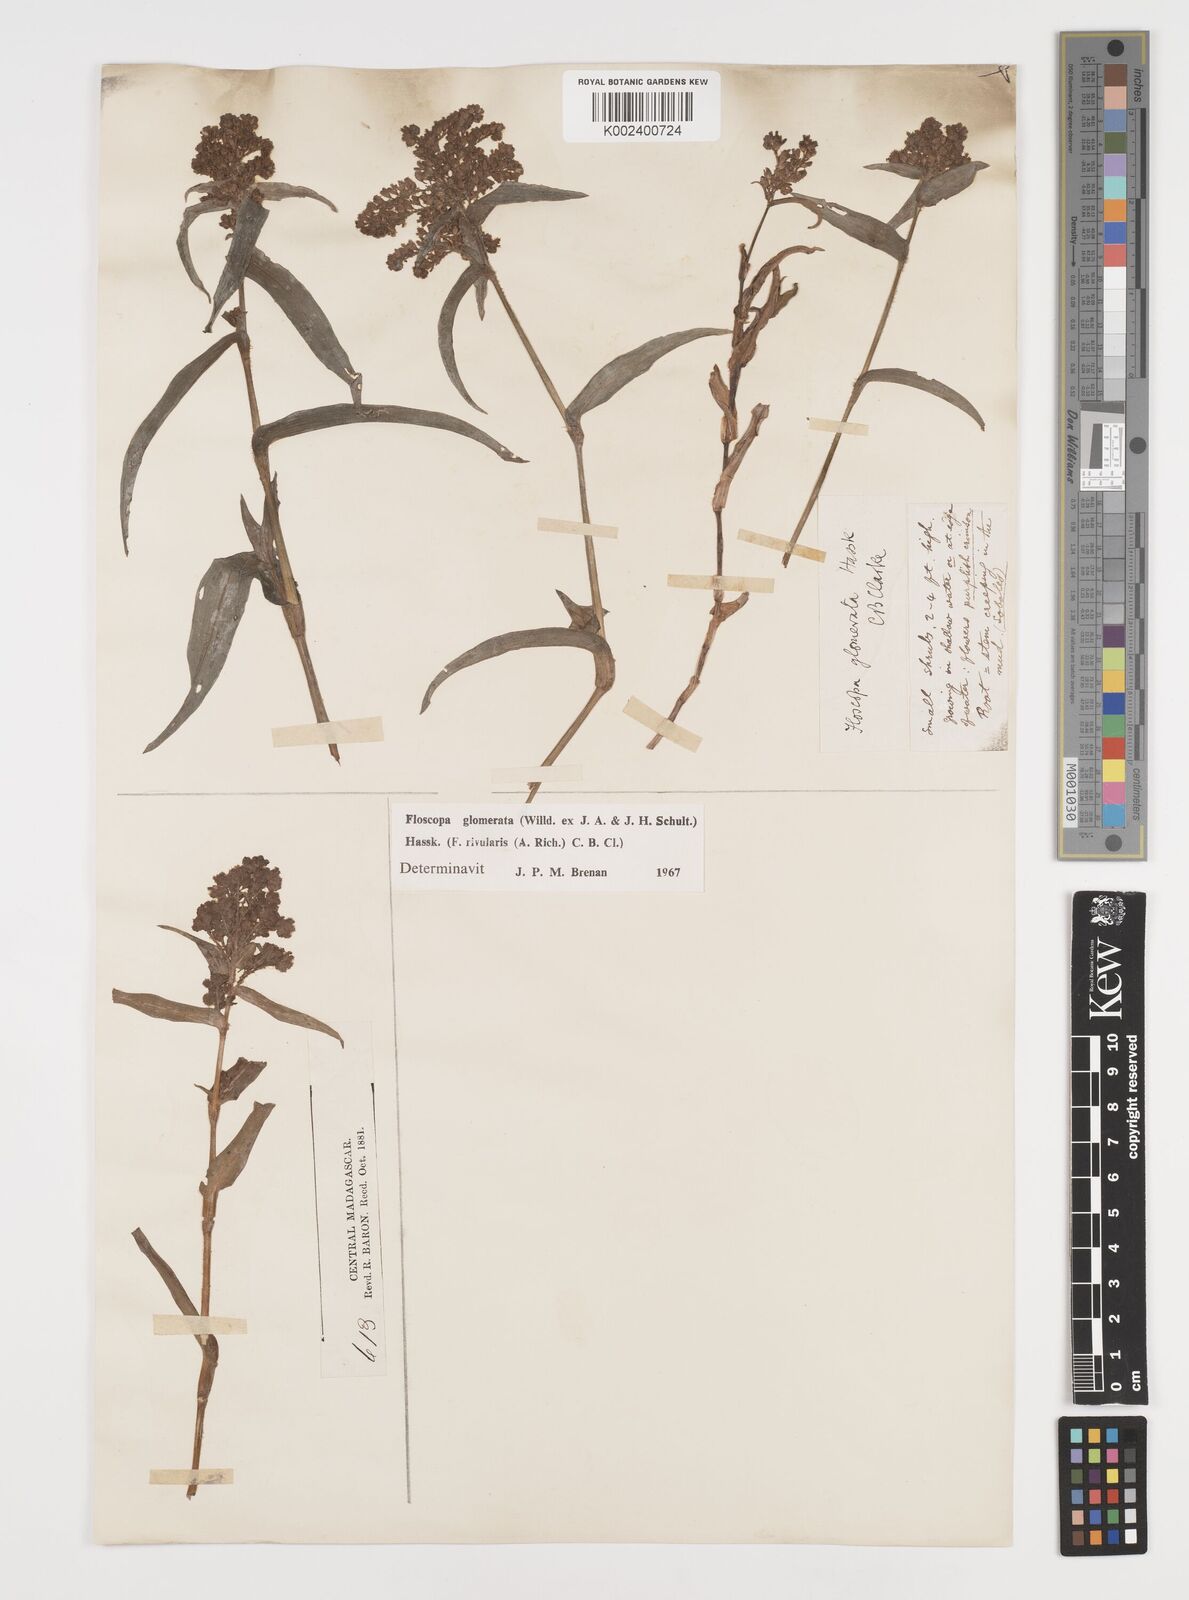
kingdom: Plantae
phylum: Tracheophyta
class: Liliopsida
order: Commelinales
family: Commelinaceae
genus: Floscopa
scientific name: Floscopa glomerata
